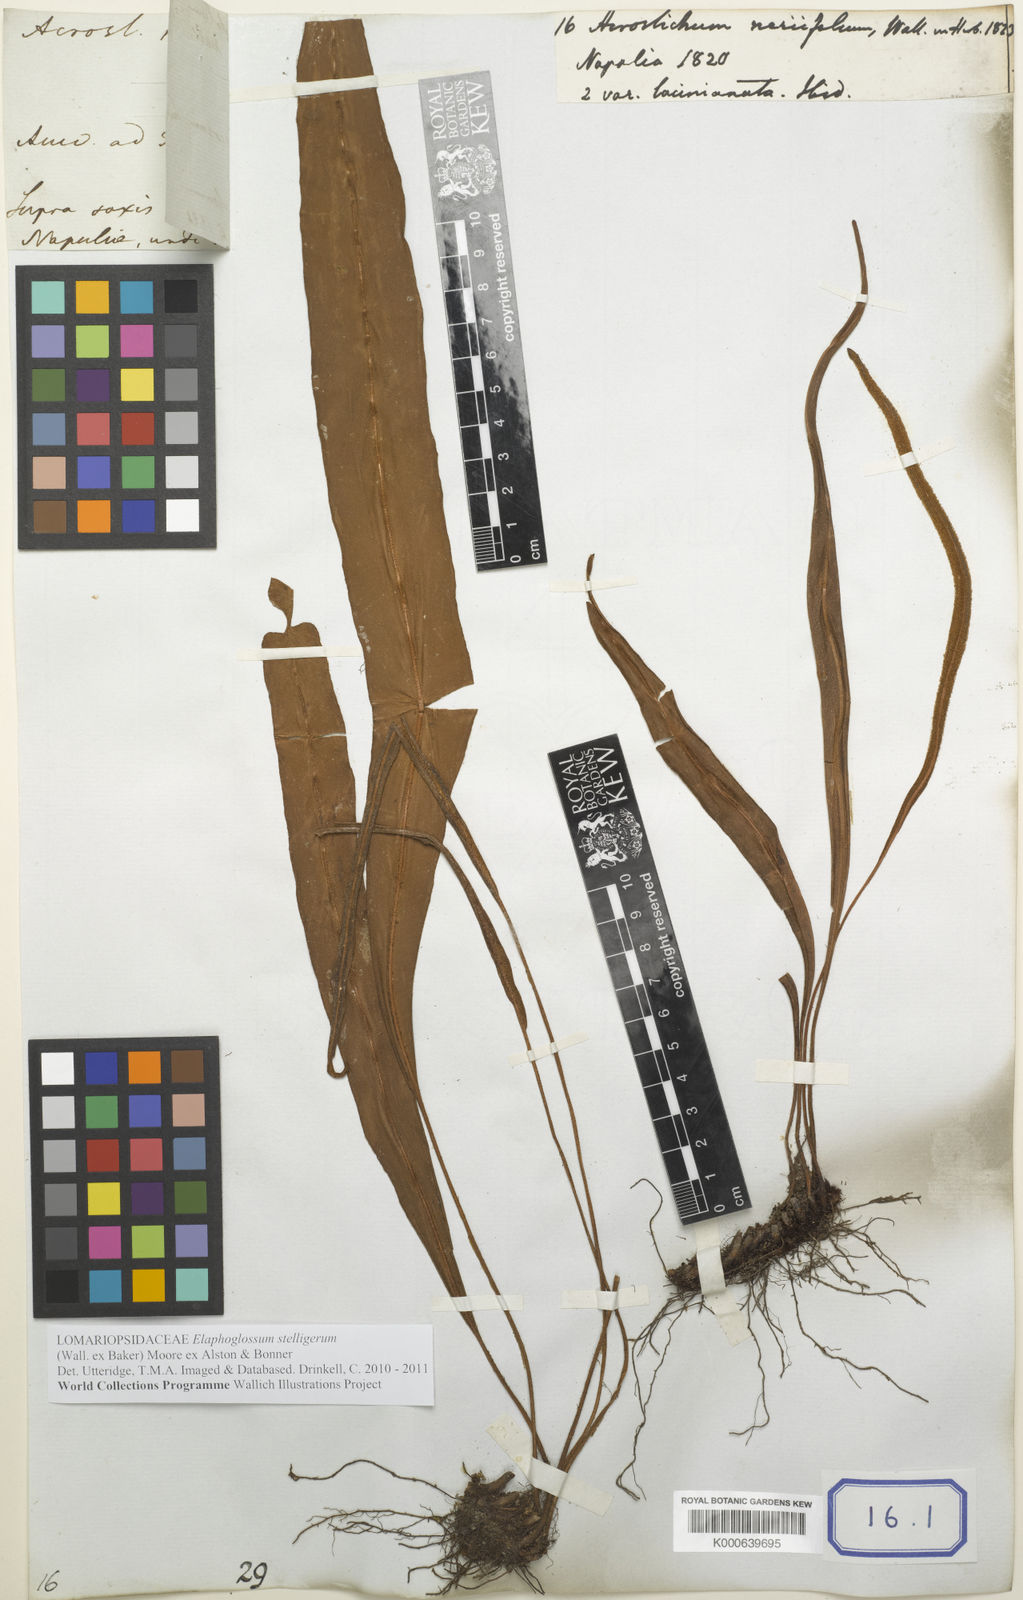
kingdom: Plantae
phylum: Tracheophyta
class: Polypodiopsida
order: Polypodiales
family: Dryopteridaceae
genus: Elaphoglossum
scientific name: Elaphoglossum stelligerum
